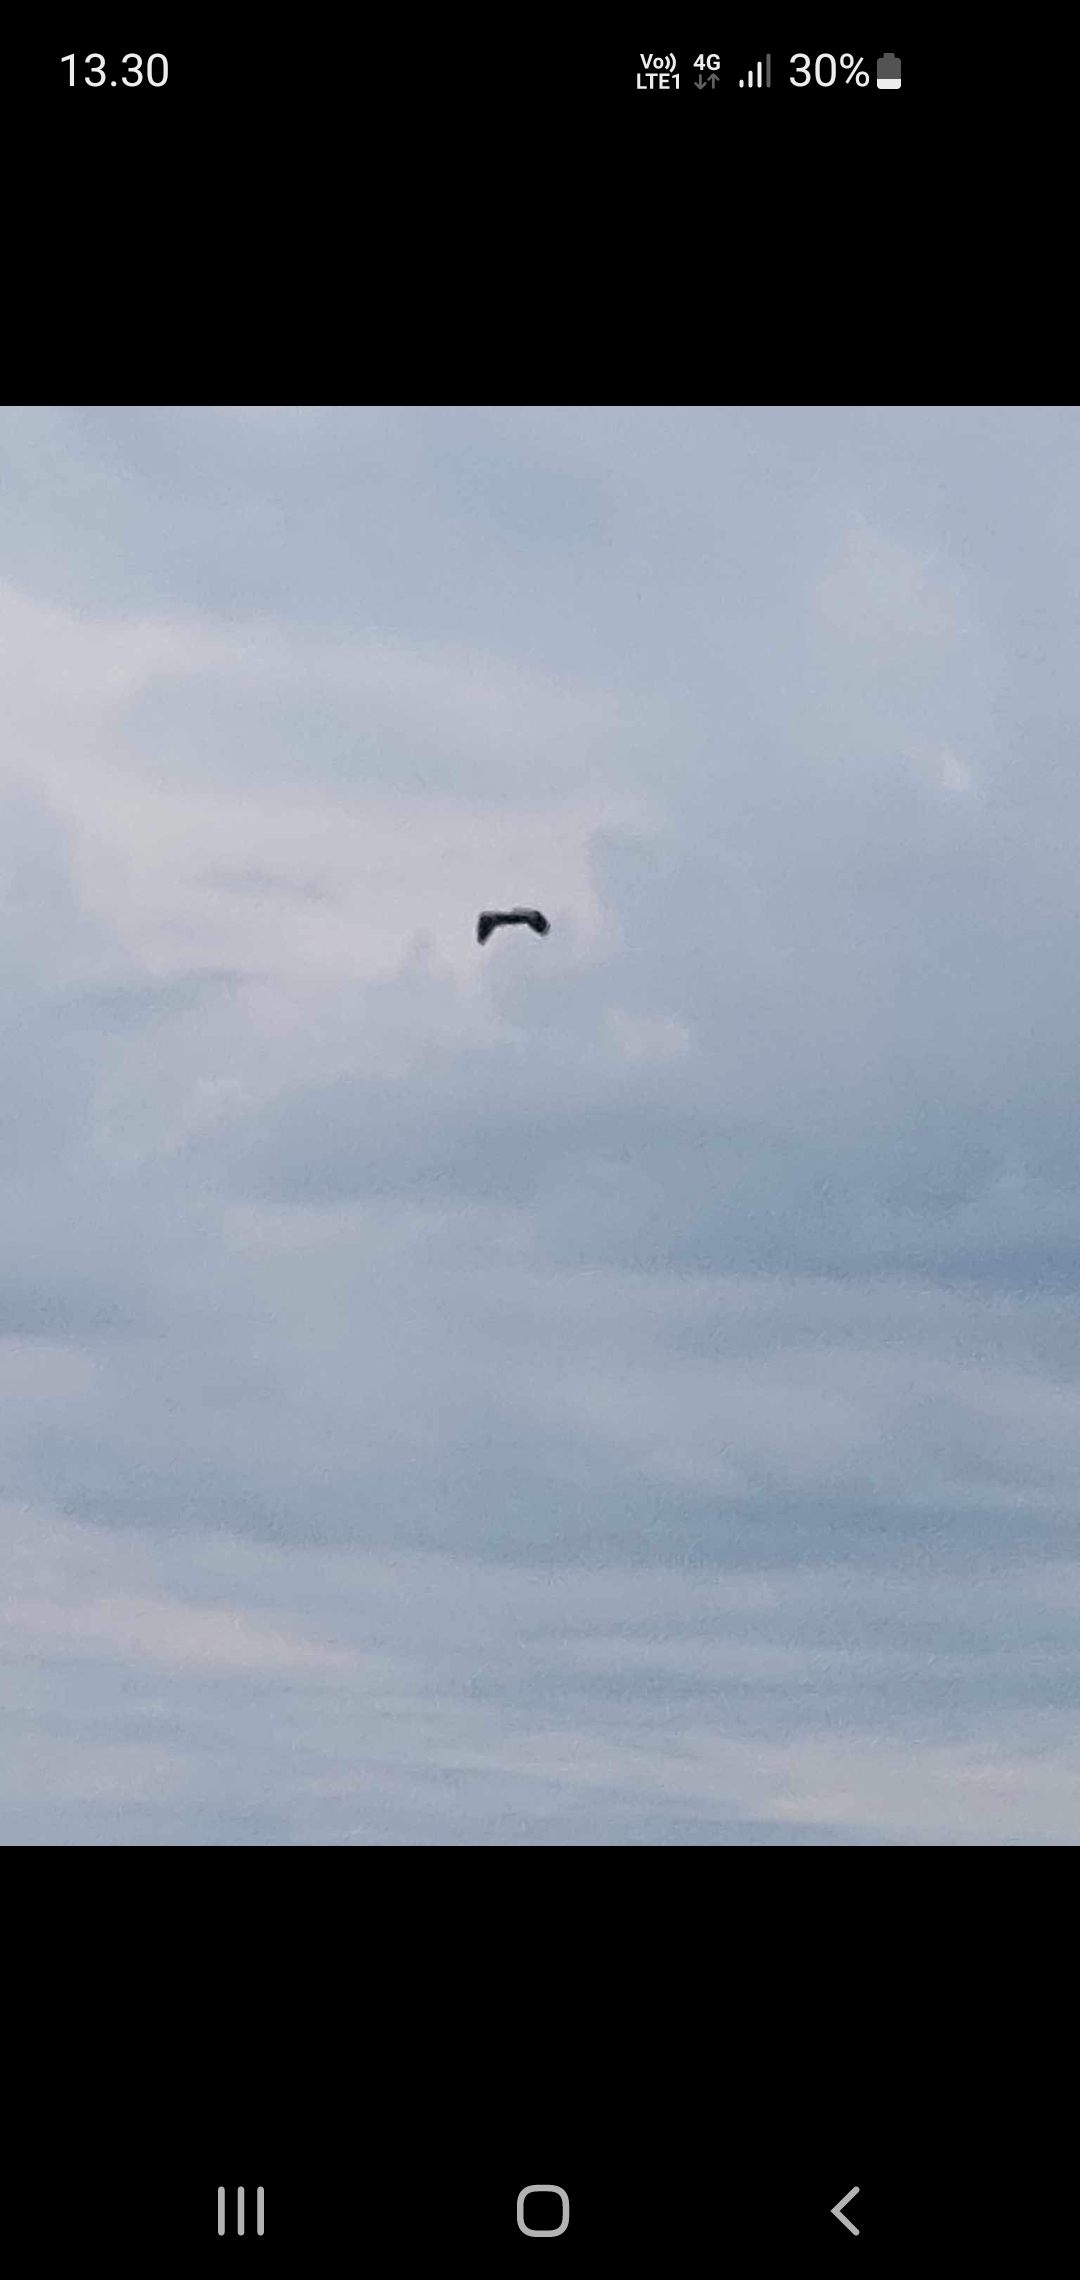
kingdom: Animalia
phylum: Chordata
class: Aves
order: Pelecaniformes
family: Ardeidae
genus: Ardea
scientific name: Ardea cinerea
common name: Fiskehejre
